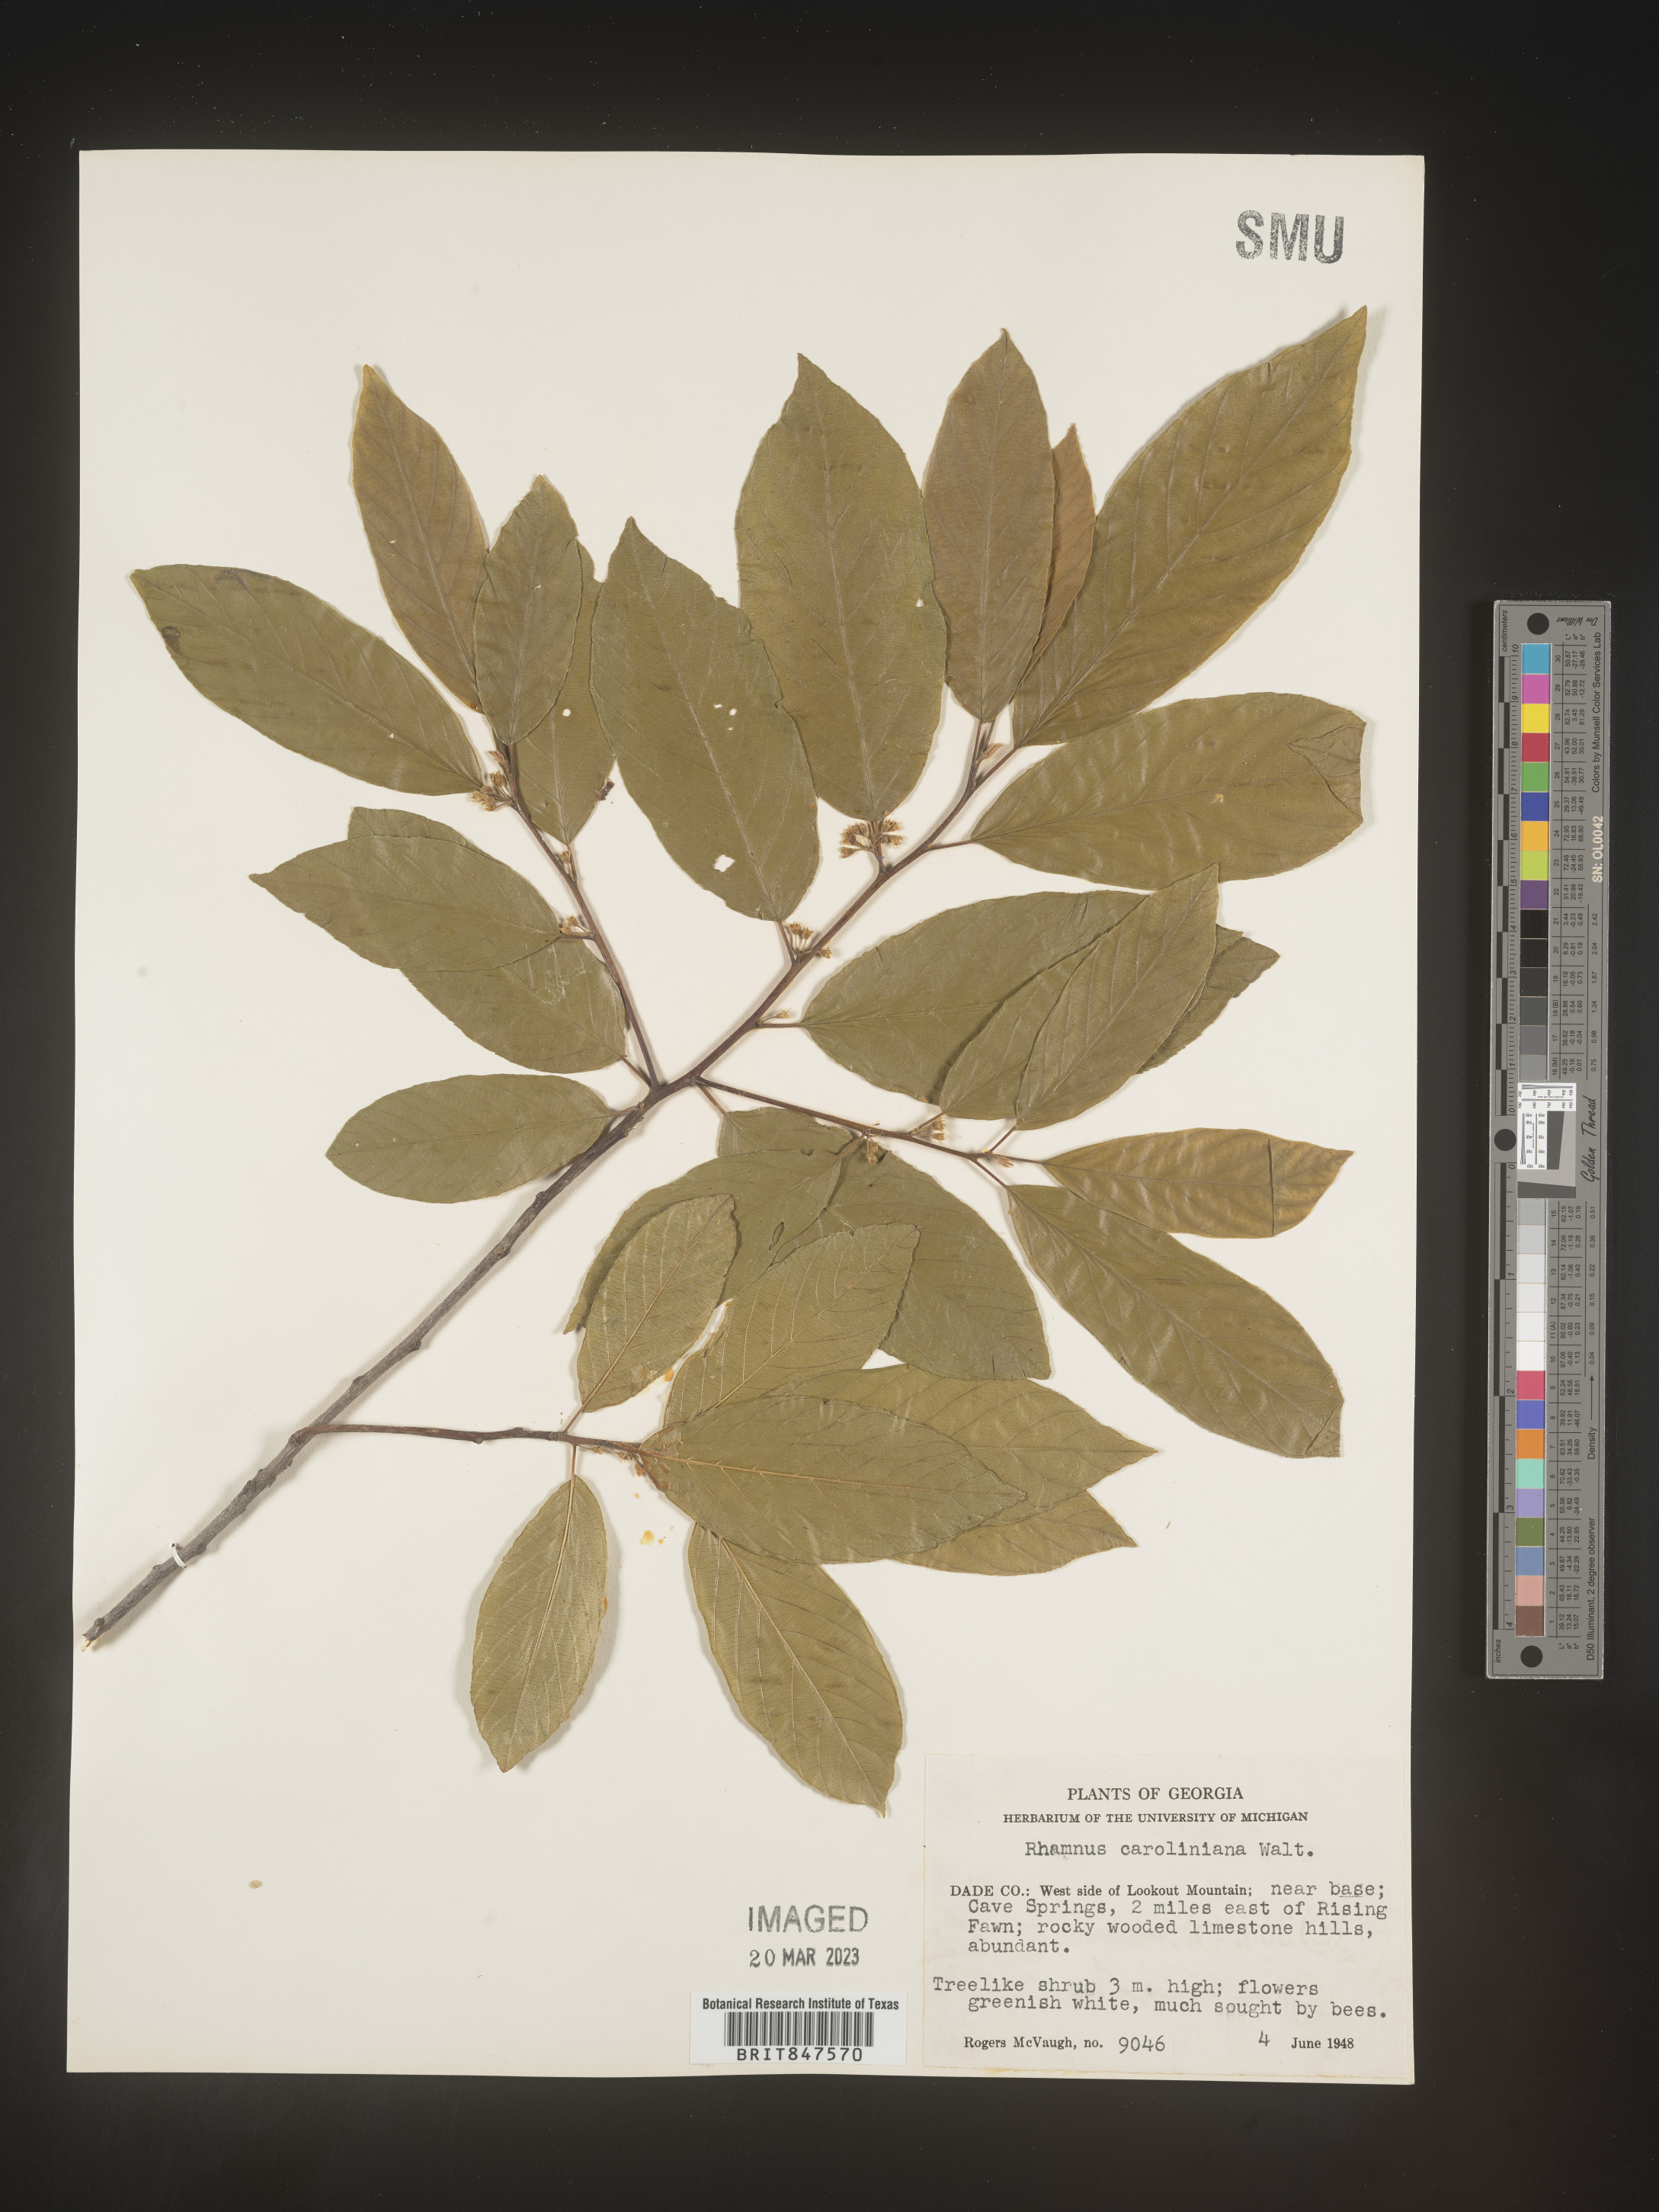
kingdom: Plantae
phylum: Tracheophyta
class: Magnoliopsida
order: Rosales
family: Rhamnaceae
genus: Frangula
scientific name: Frangula caroliniana
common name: Carolina buckthorn
